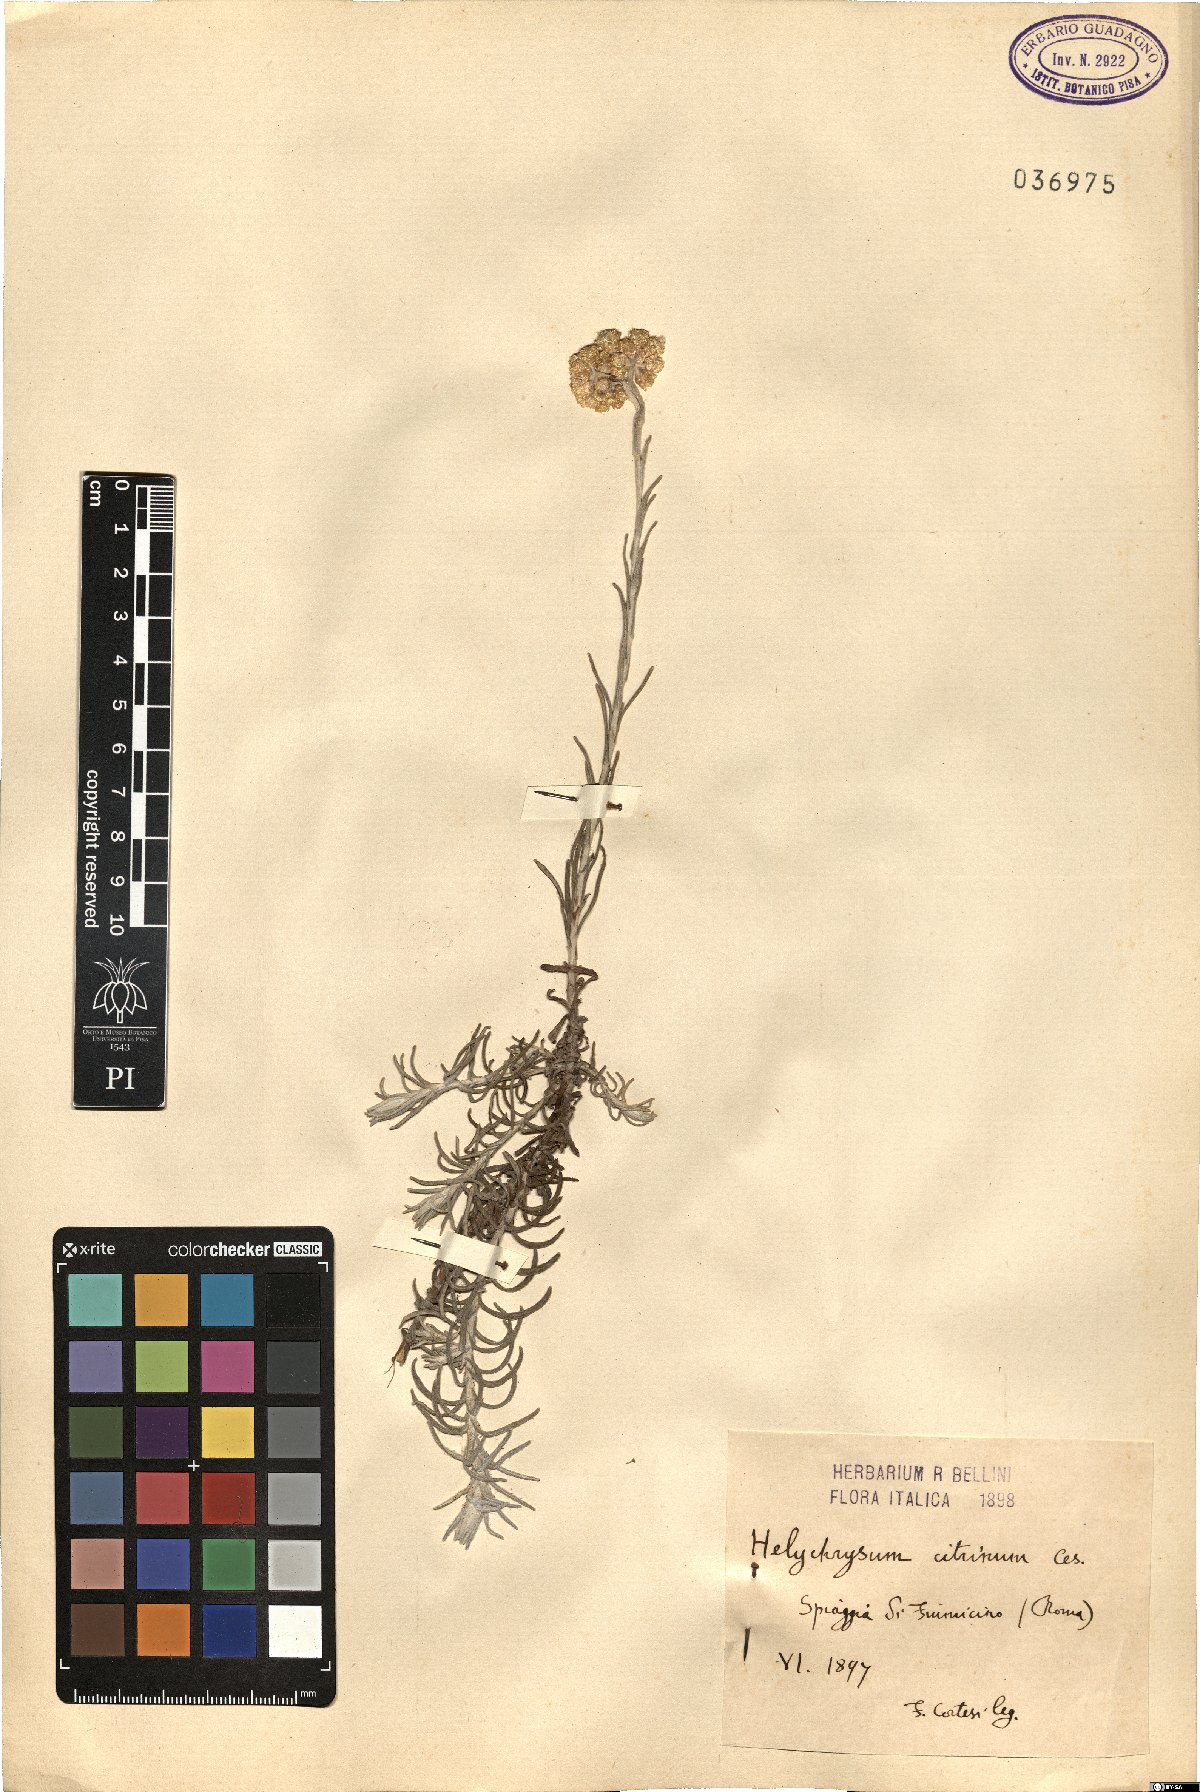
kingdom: Plantae
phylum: Tracheophyta
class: Magnoliopsida
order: Asterales
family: Asteraceae
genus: Helichrysum
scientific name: Helichrysum stoechas
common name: Goldilocks
